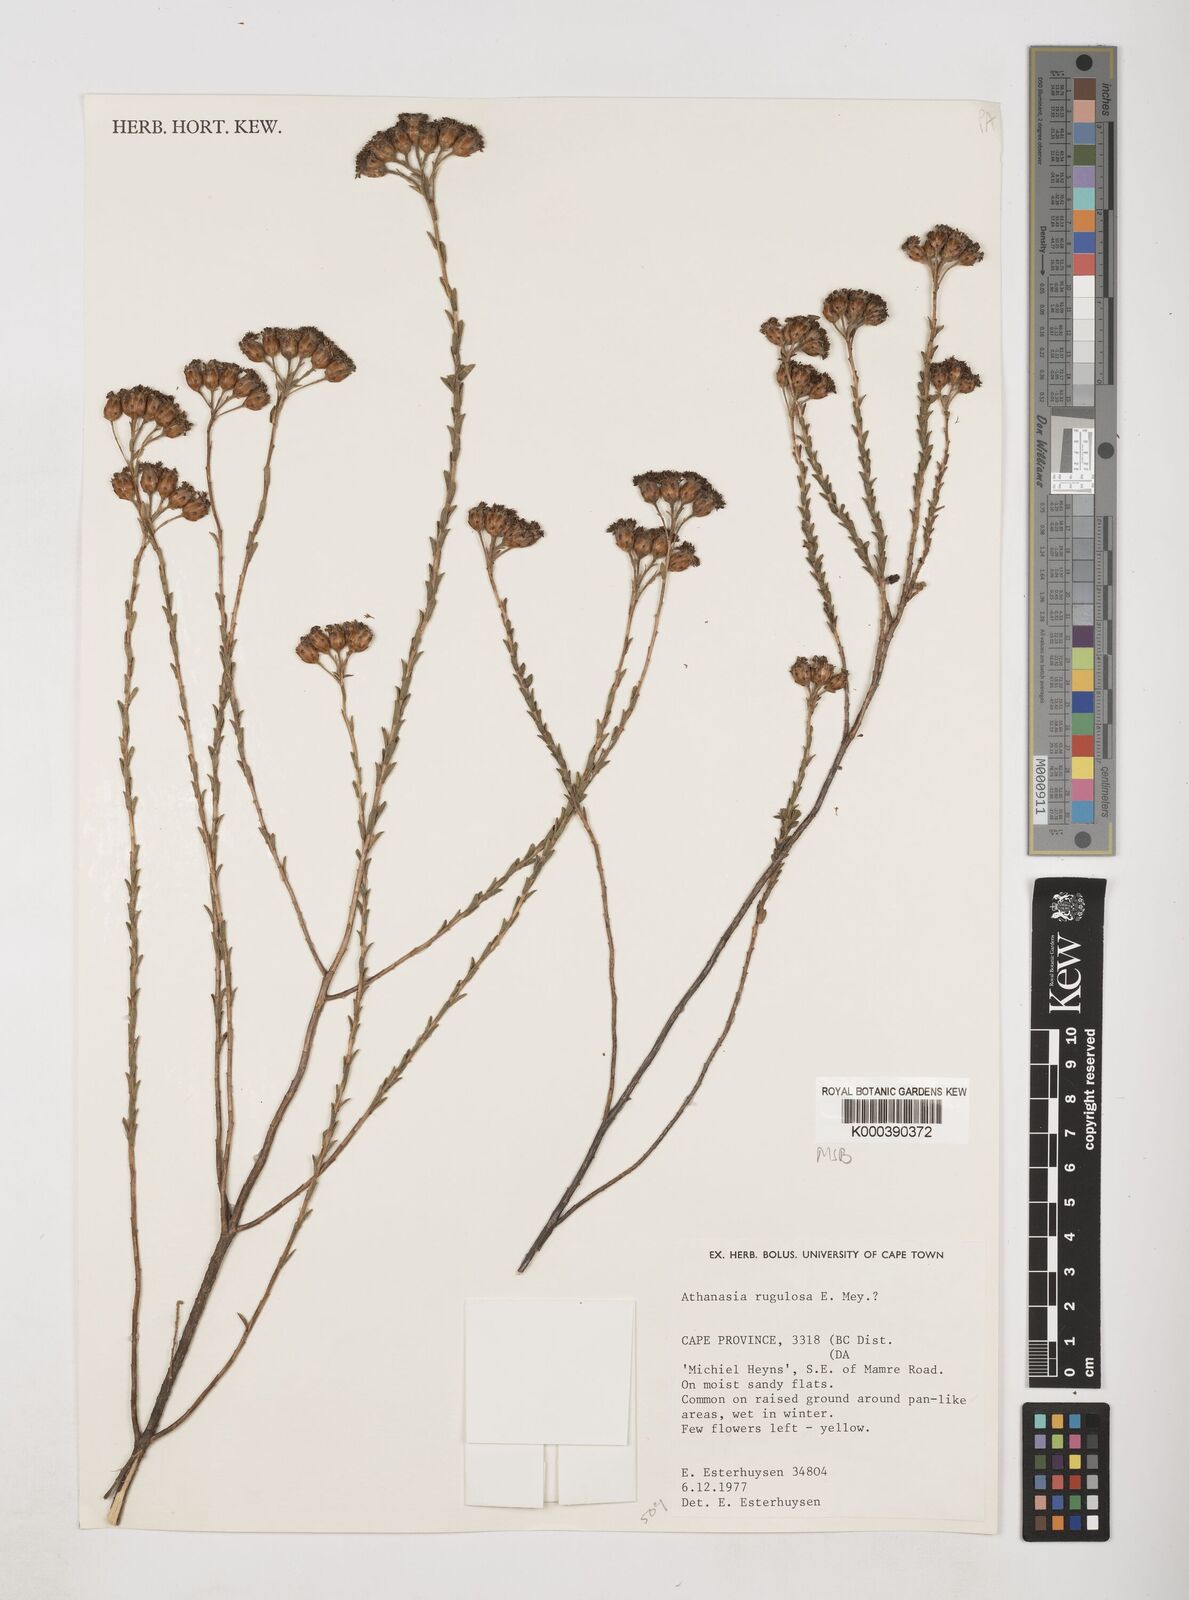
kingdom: Plantae
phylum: Tracheophyta
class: Magnoliopsida
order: Asterales
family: Asteraceae
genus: Athanasia
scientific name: Athanasia rugulosa
